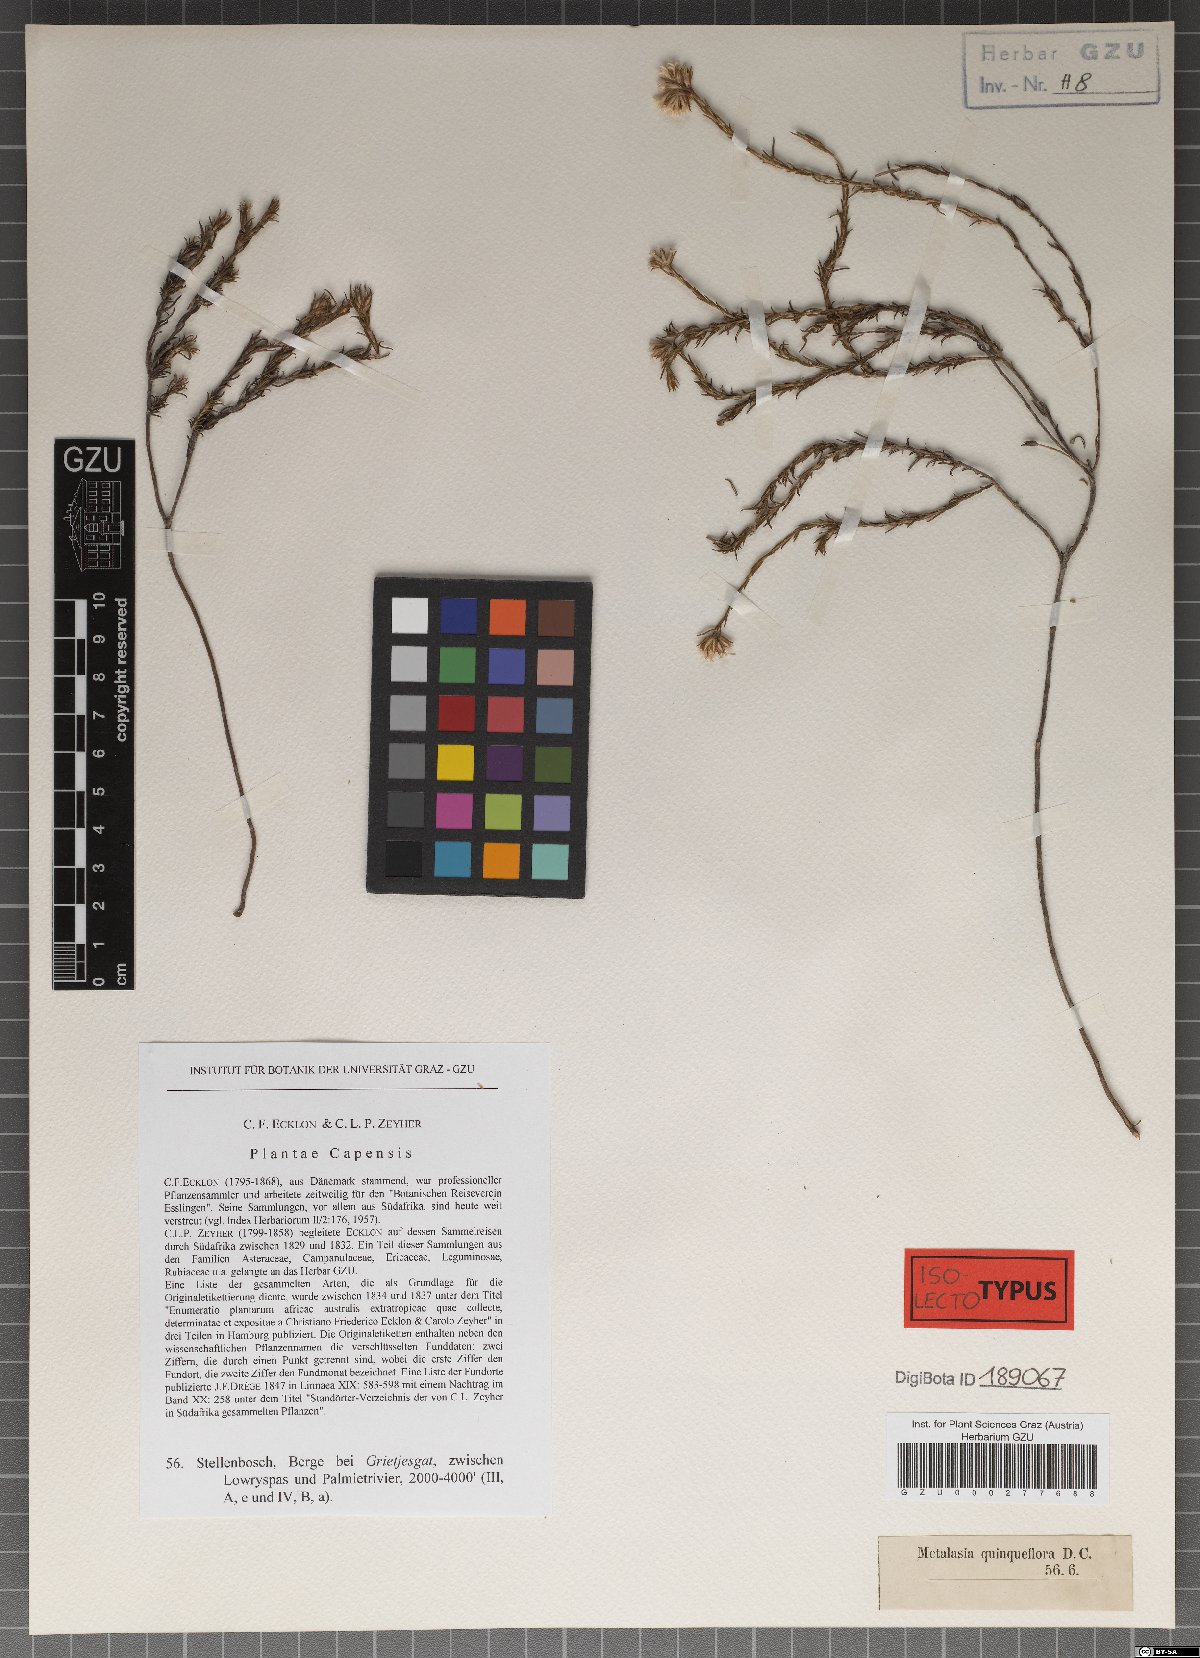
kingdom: Plantae
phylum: Tracheophyta
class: Magnoliopsida
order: Asterales
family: Asteraceae
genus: Metalasia
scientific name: Metalasia quinqueflora
